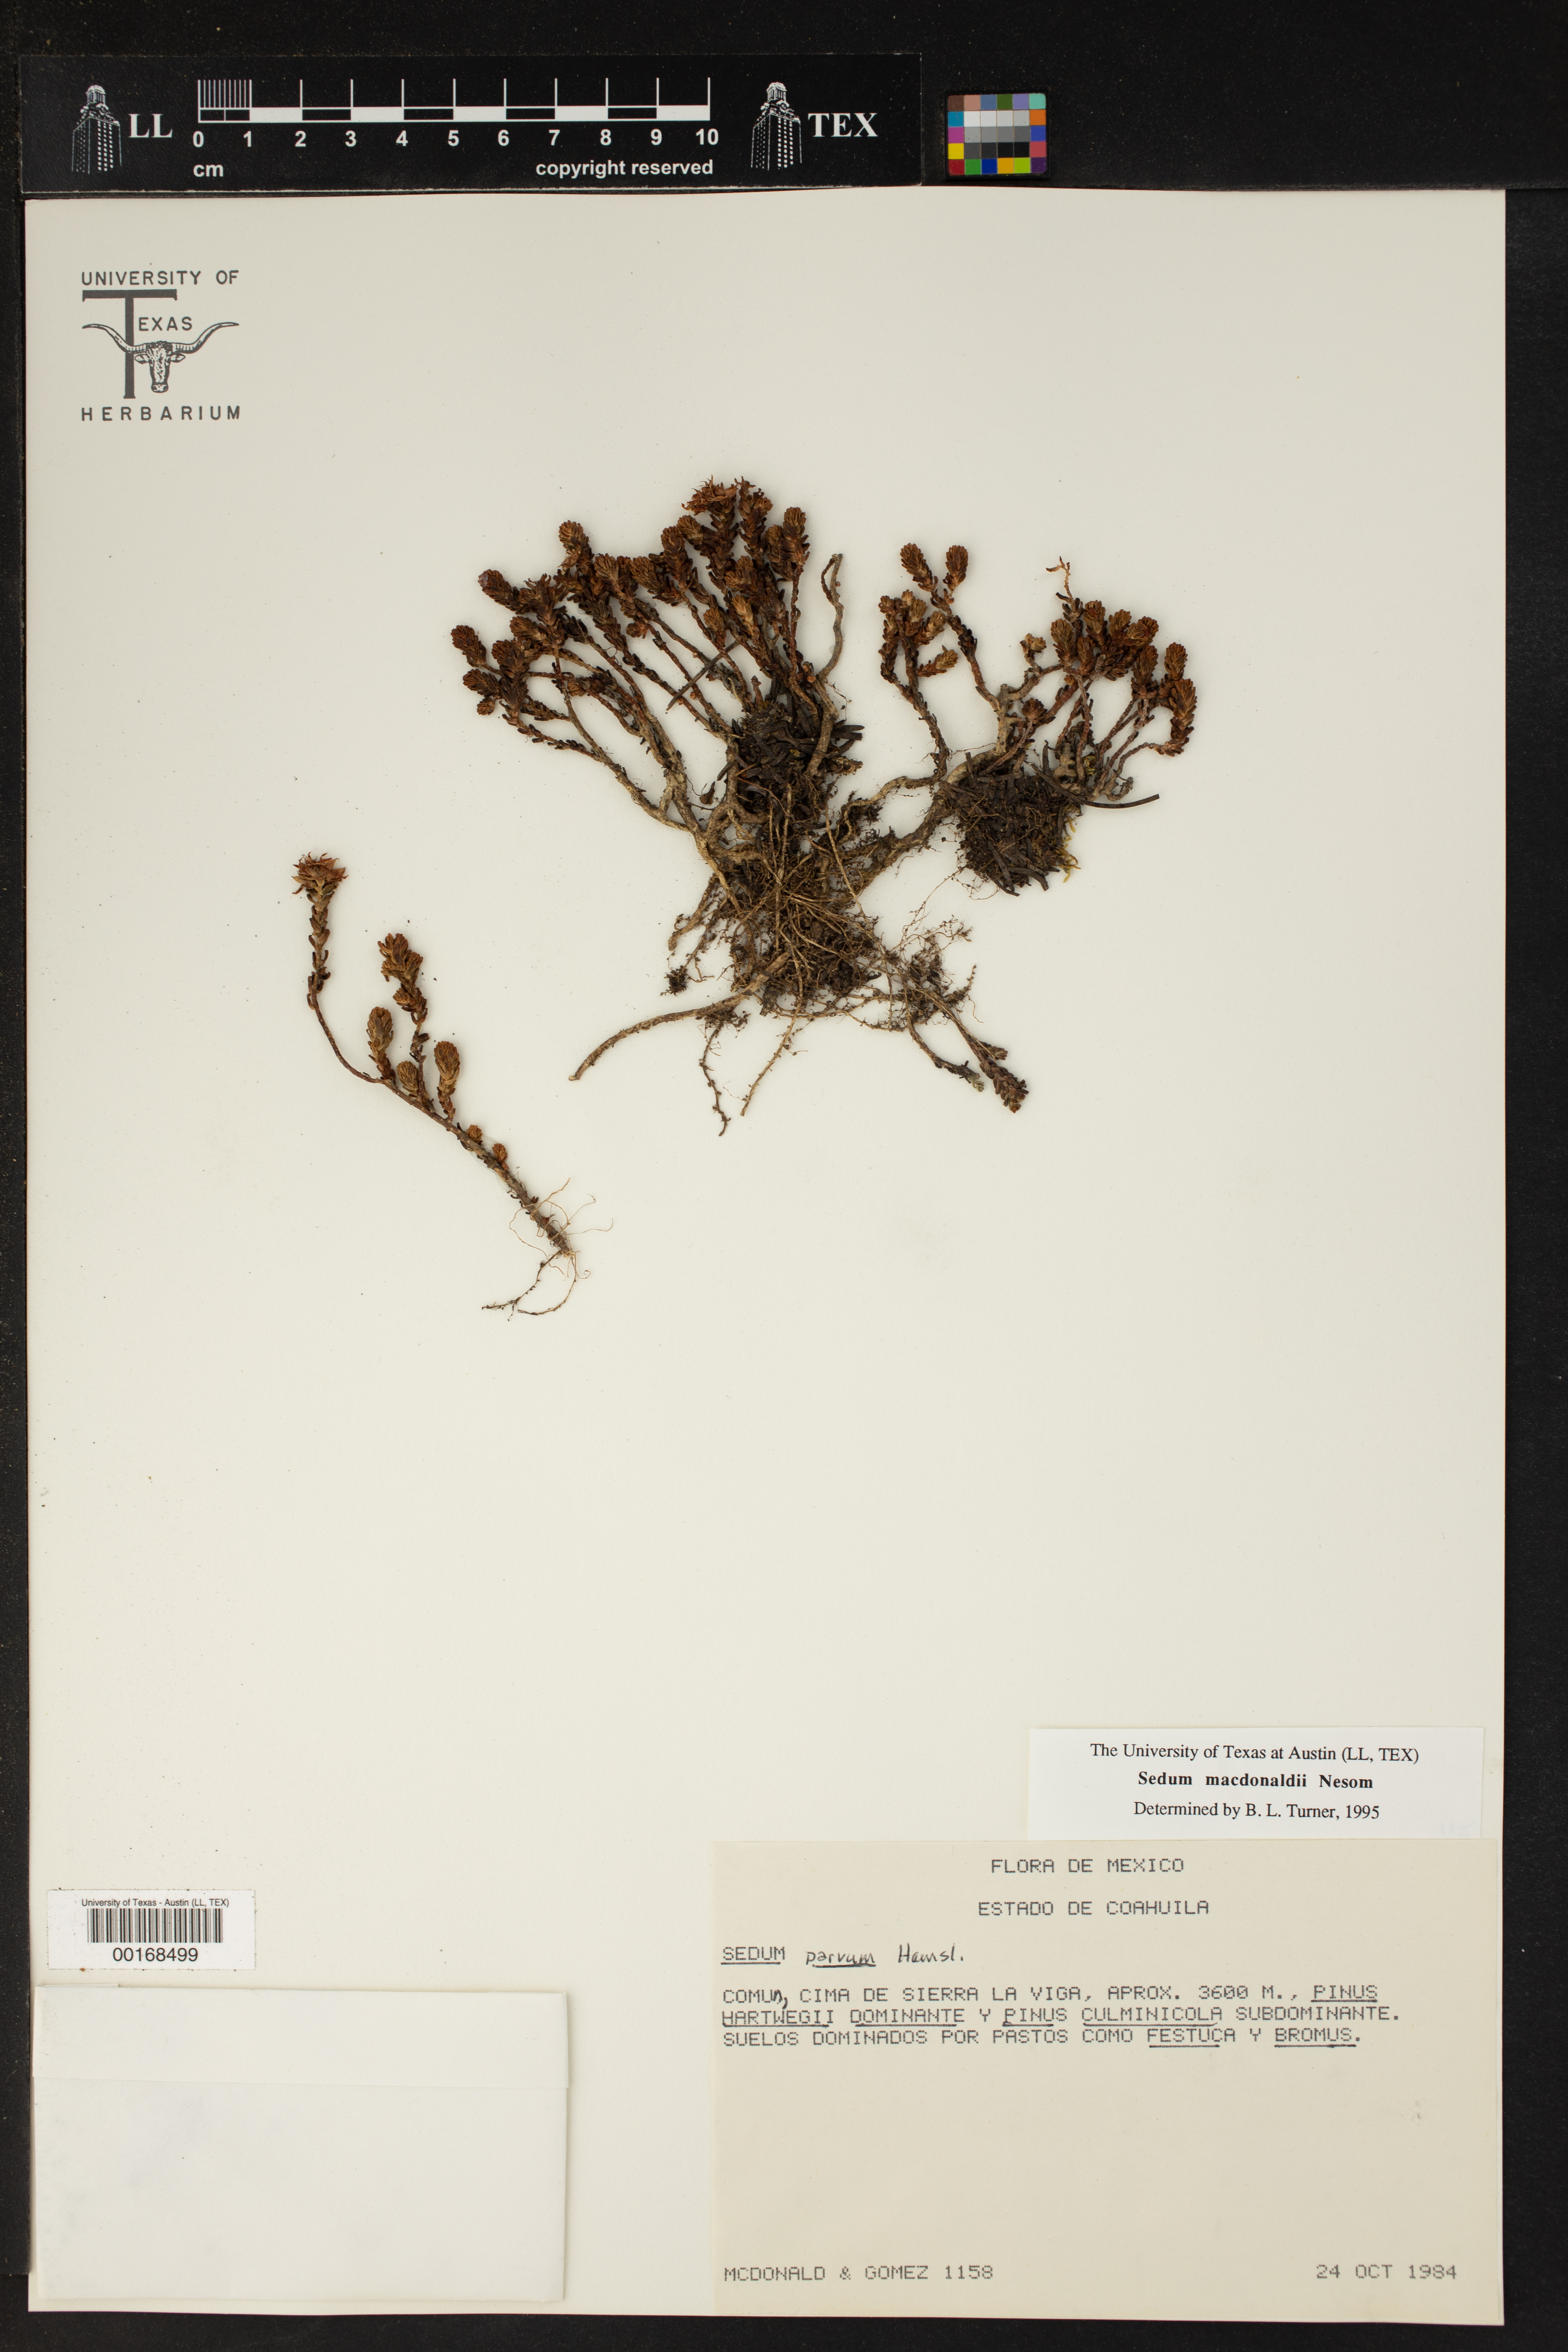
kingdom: Plantae
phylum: Tracheophyta
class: Magnoliopsida
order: Saxifragales
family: Crassulaceae
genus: Sedum
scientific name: Sedum macdonaldii
